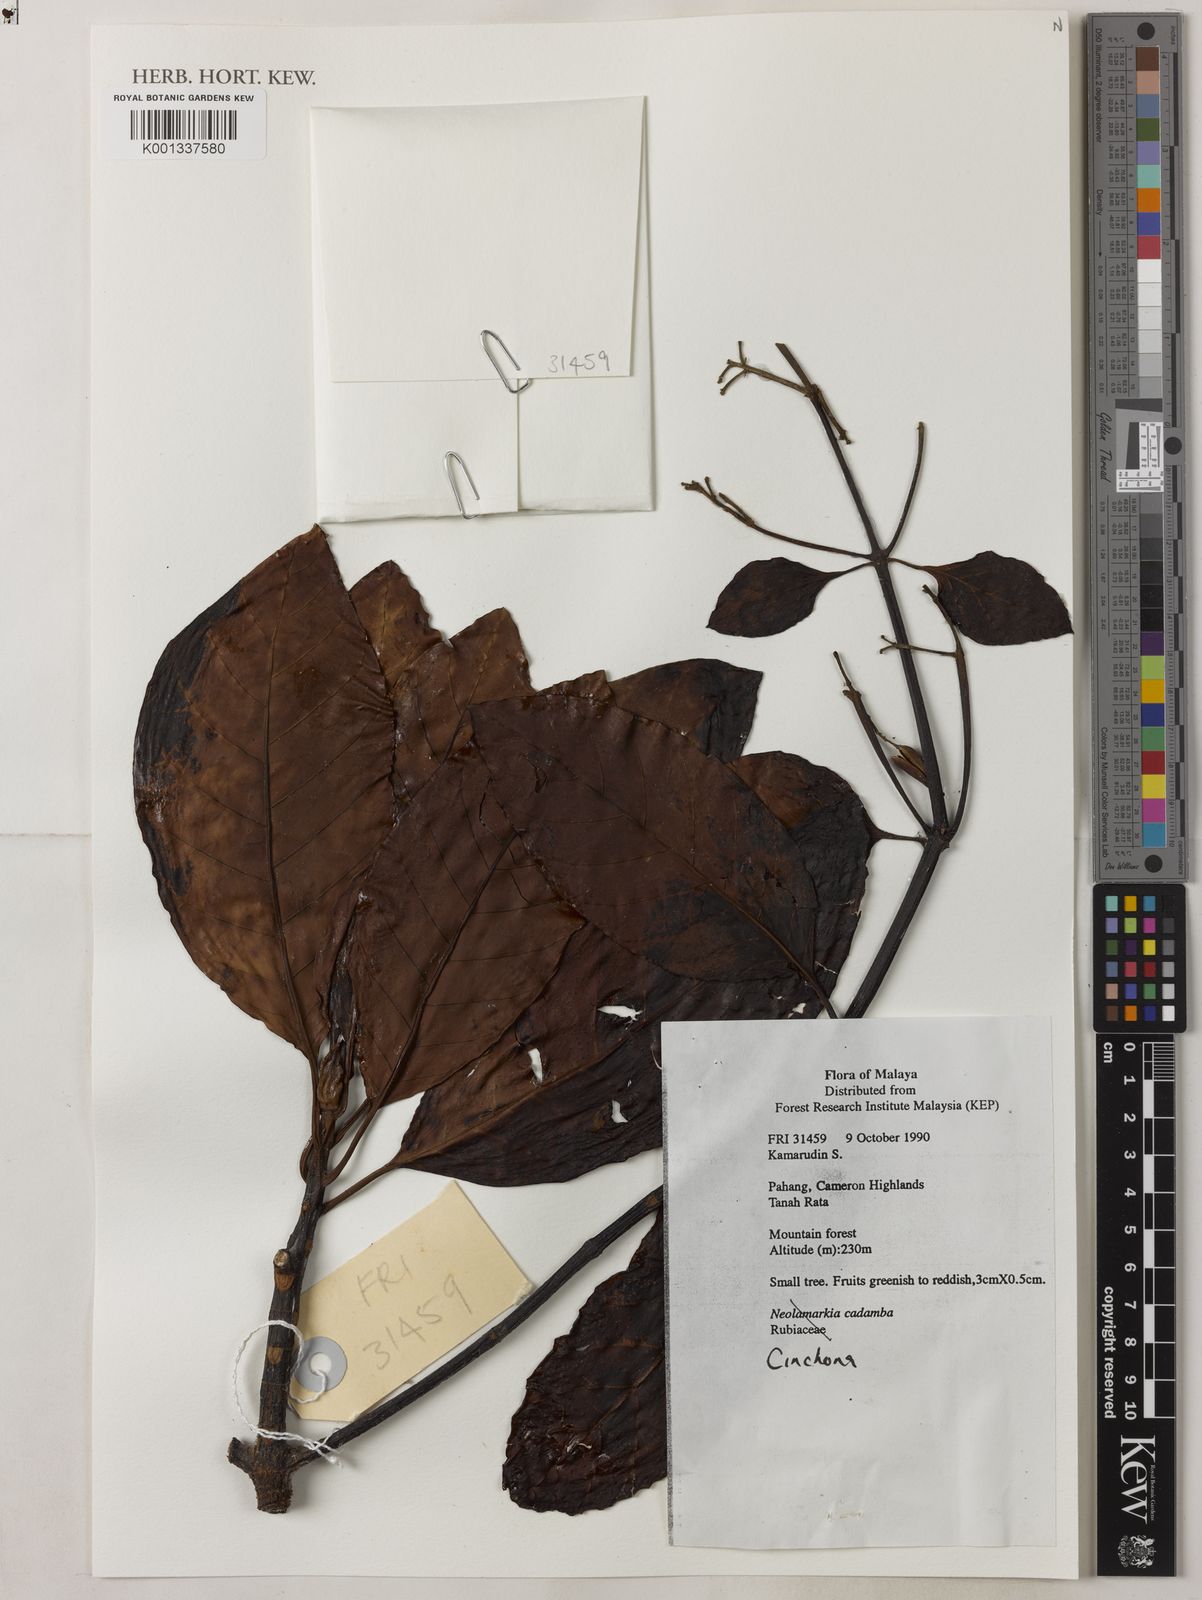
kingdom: Plantae
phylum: Tracheophyta
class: Magnoliopsida
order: Gentianales
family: Rubiaceae
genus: Cinchona
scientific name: Cinchona
